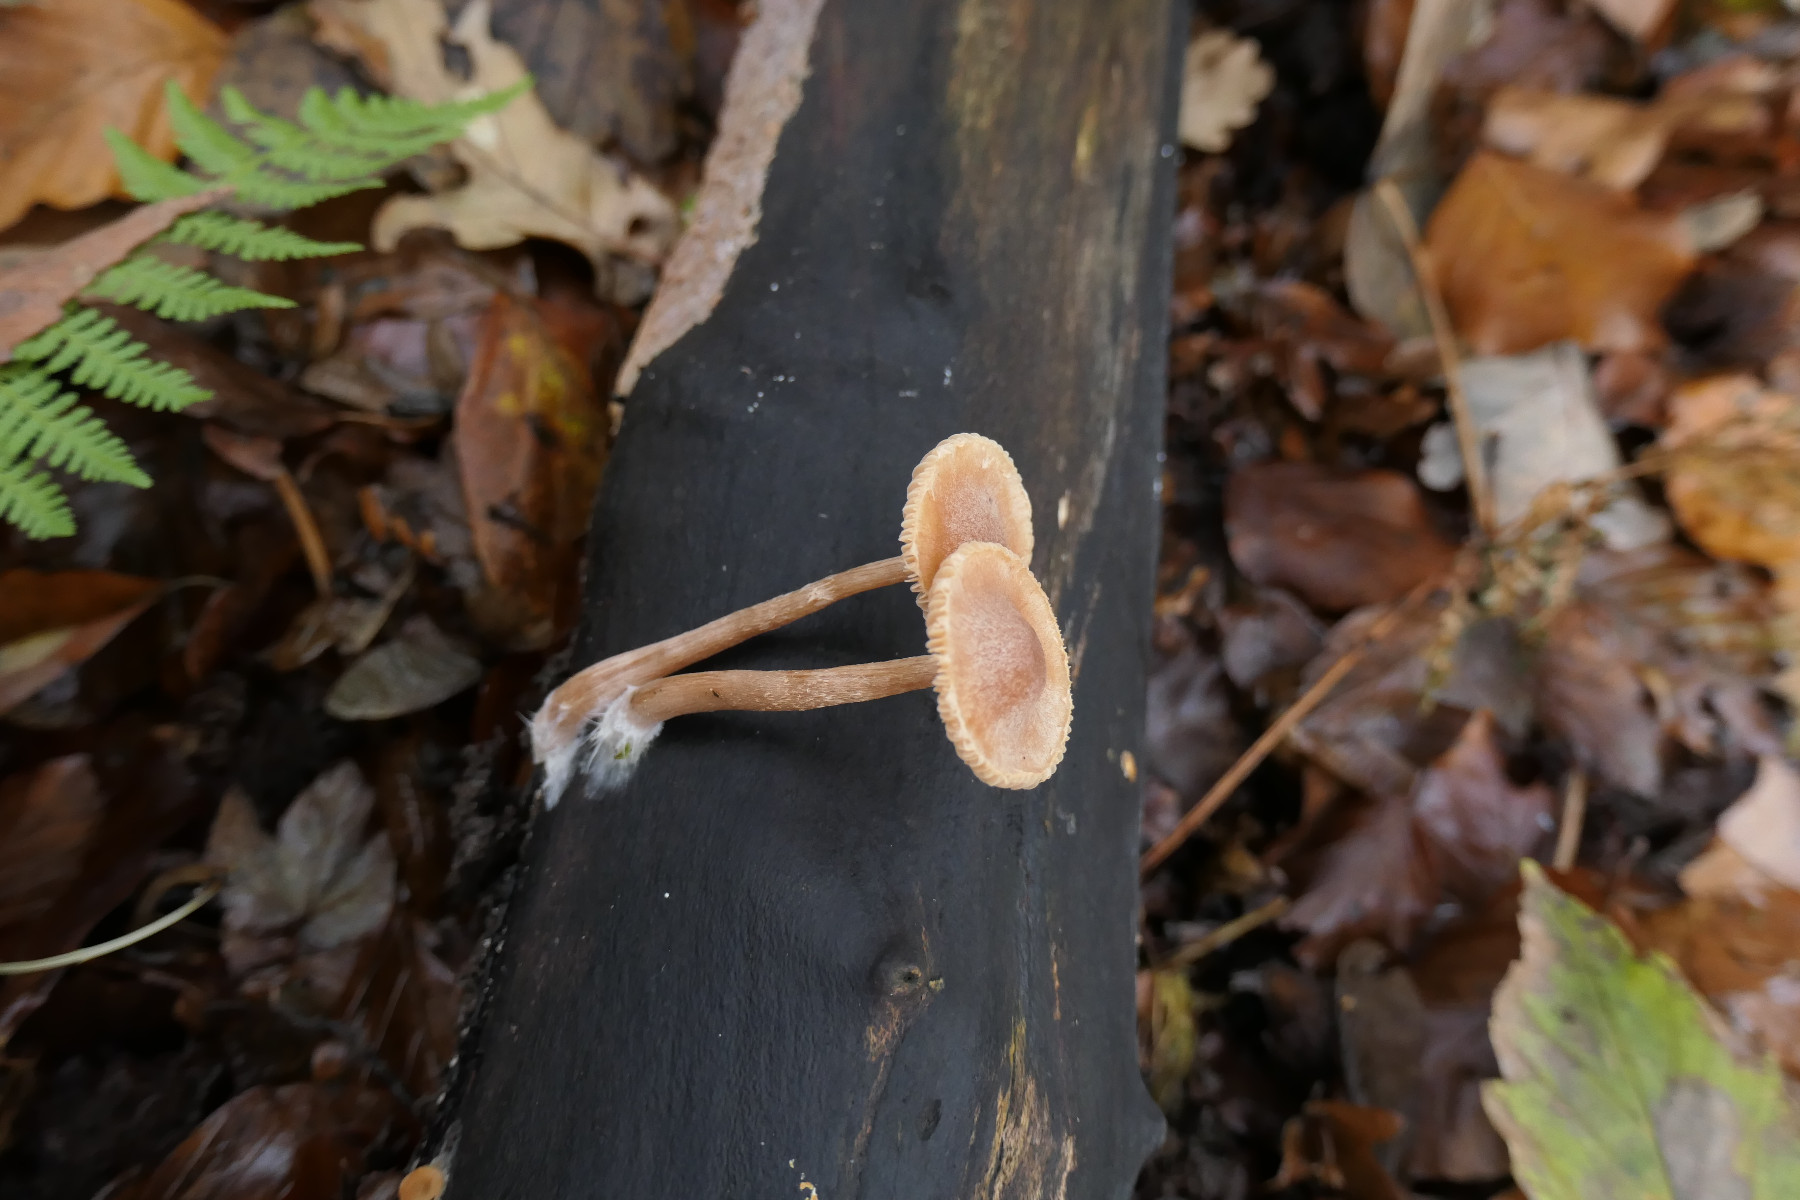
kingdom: Fungi
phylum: Basidiomycota
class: Agaricomycetes
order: Agaricales
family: Tubariaceae
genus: Tubaria
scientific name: Tubaria furfuracea
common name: kliddet fnughat
